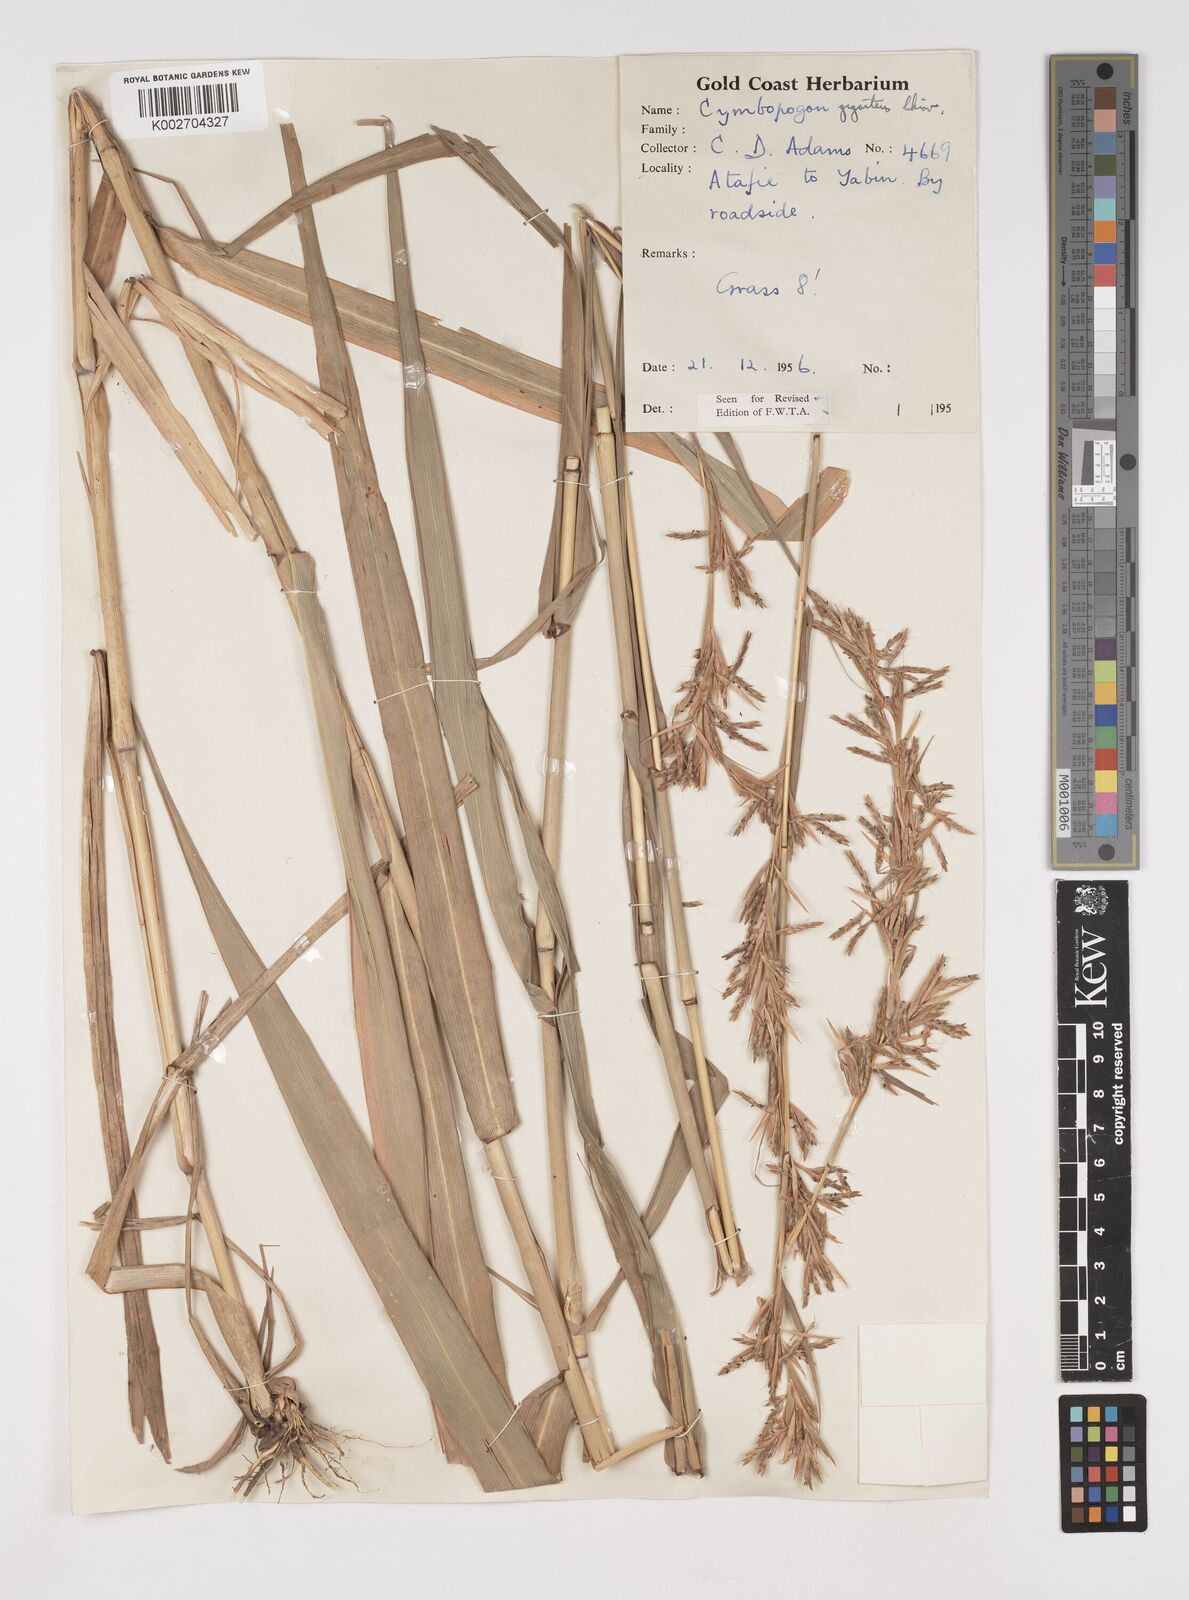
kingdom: Plantae
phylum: Tracheophyta
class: Liliopsida
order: Poales
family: Poaceae
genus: Cymbopogon
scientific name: Cymbopogon giganteus
